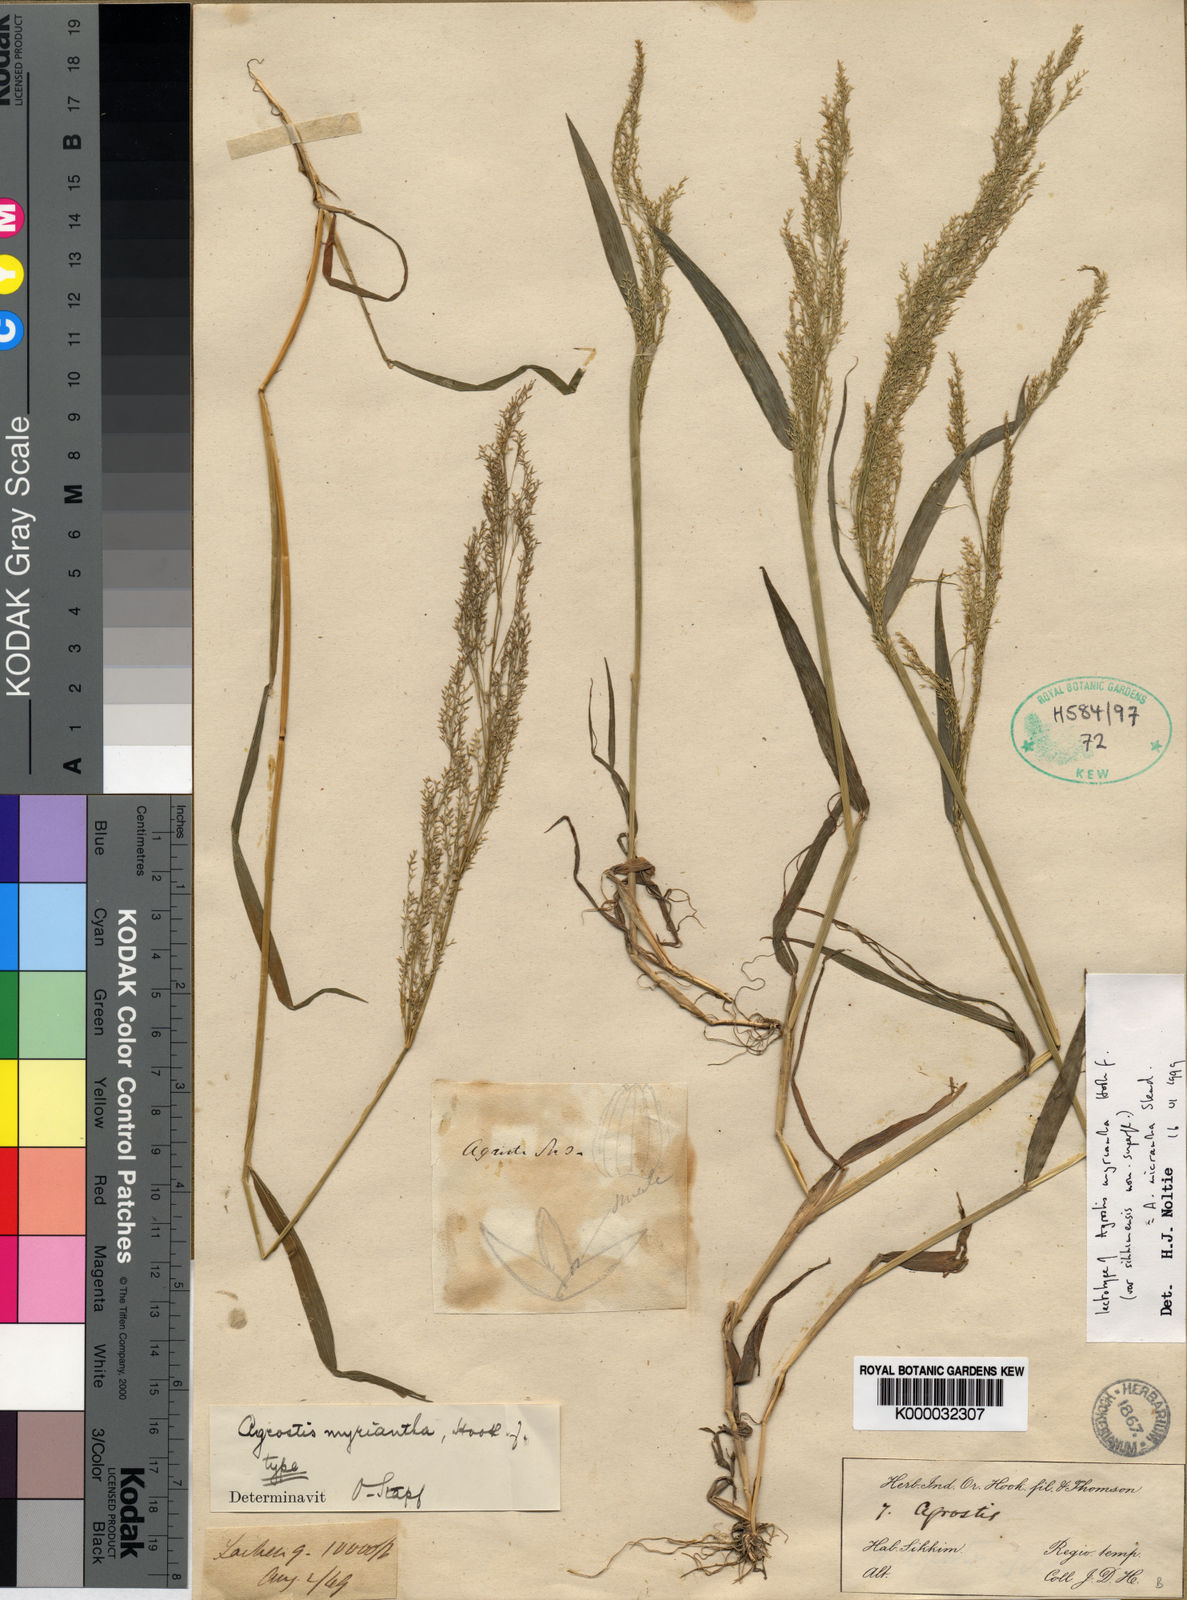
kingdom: Plantae
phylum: Tracheophyta
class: Liliopsida
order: Poales
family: Poaceae
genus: Agrostis
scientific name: Agrostis micrantha
